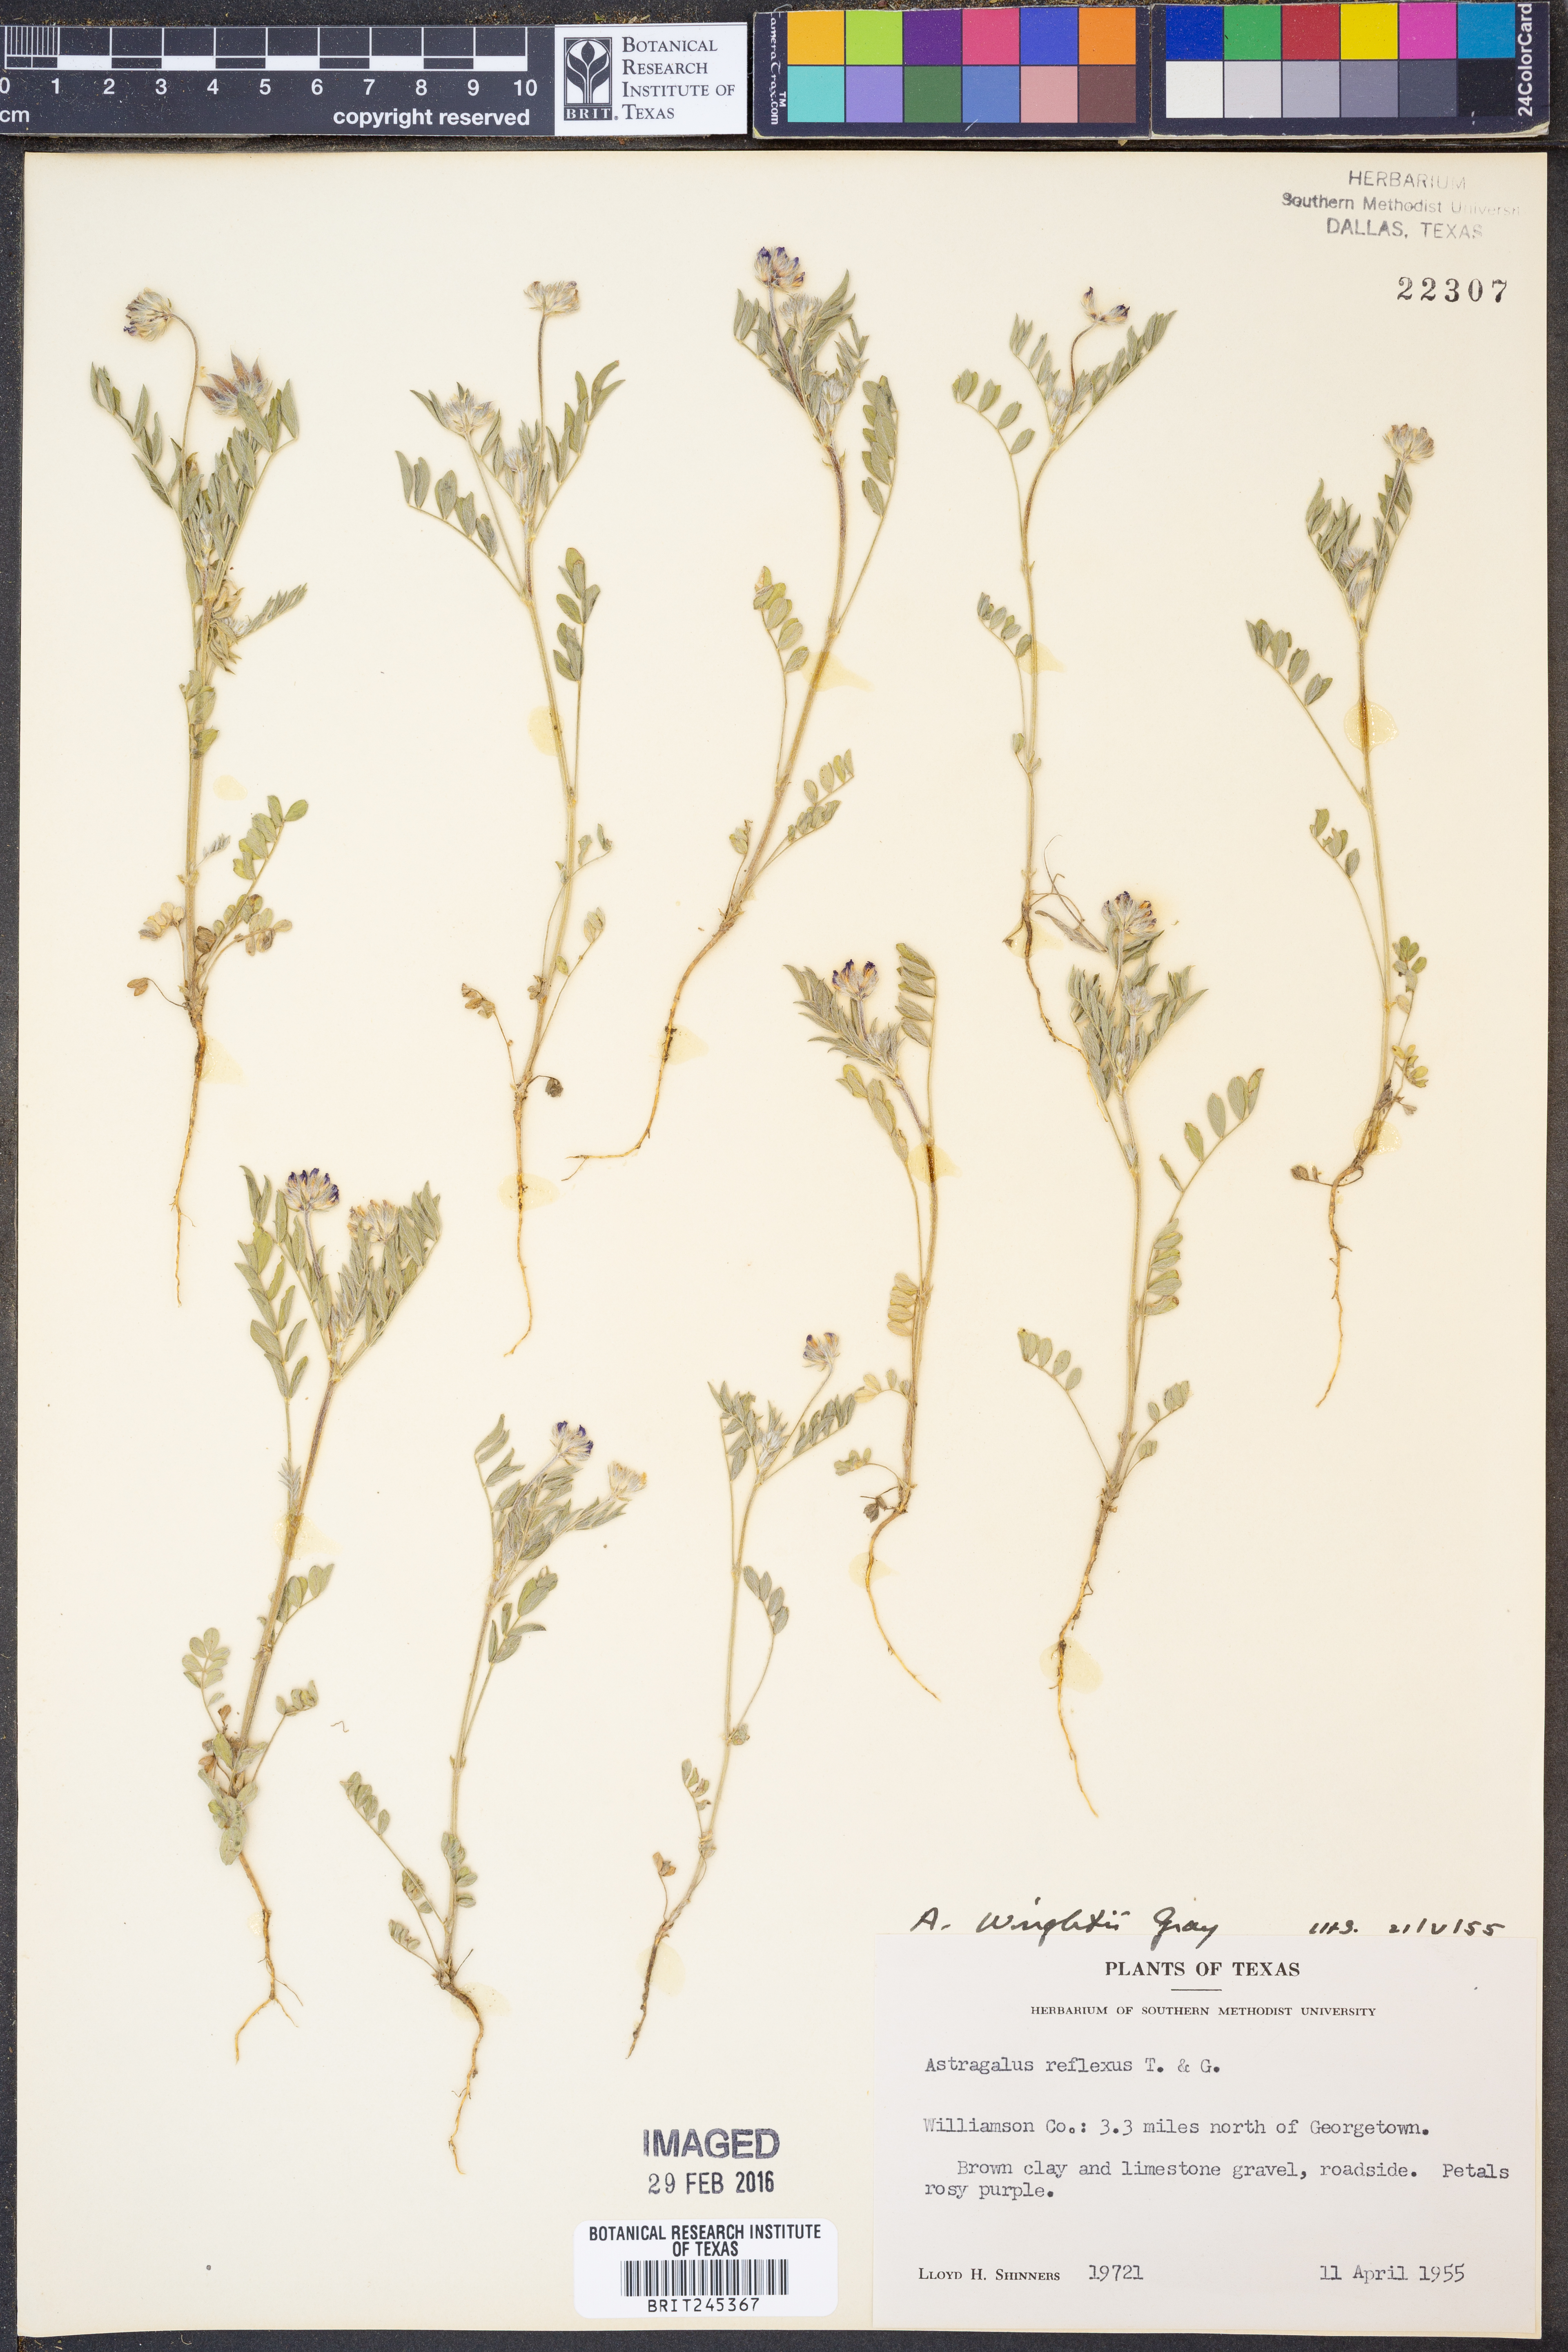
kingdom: Plantae
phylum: Tracheophyta
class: Magnoliopsida
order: Fabales
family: Fabaceae
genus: Astragalus
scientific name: Astragalus wrightii
